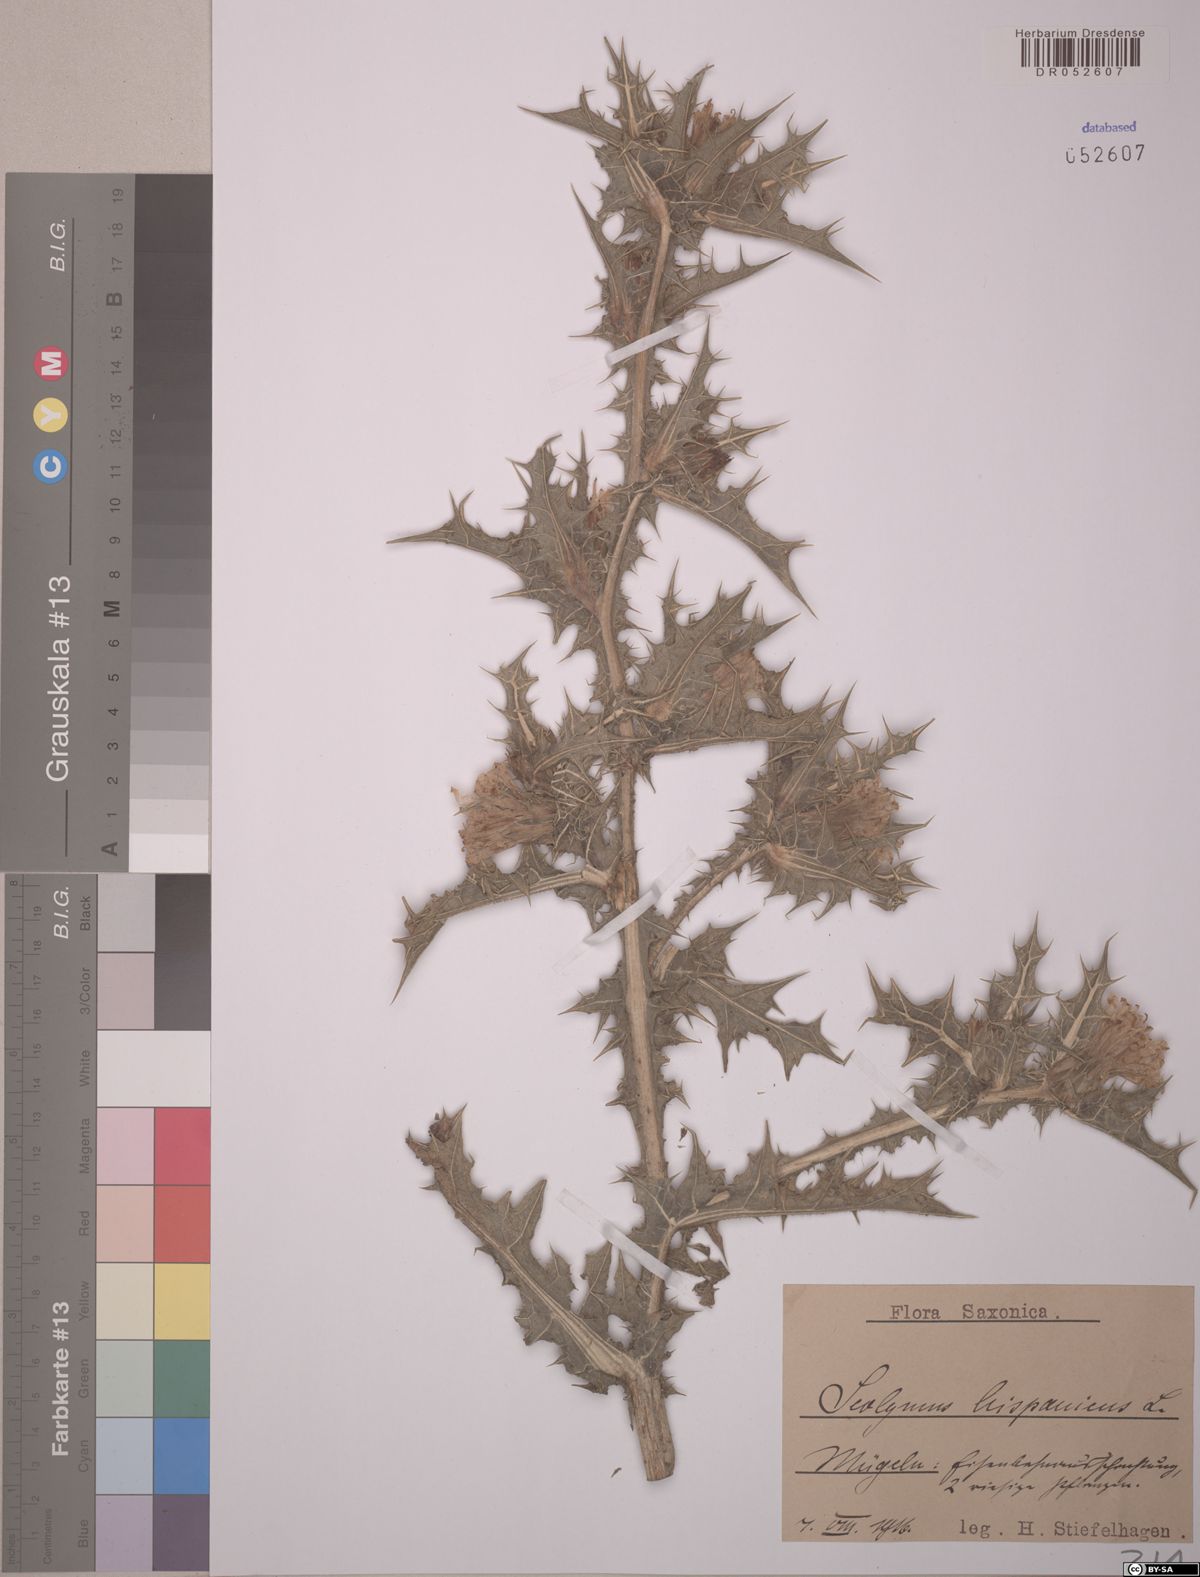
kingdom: Plantae
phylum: Tracheophyta
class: Magnoliopsida
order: Asterales
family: Asteraceae
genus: Scolymus
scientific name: Scolymus hispanicus
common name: Golden thistle
